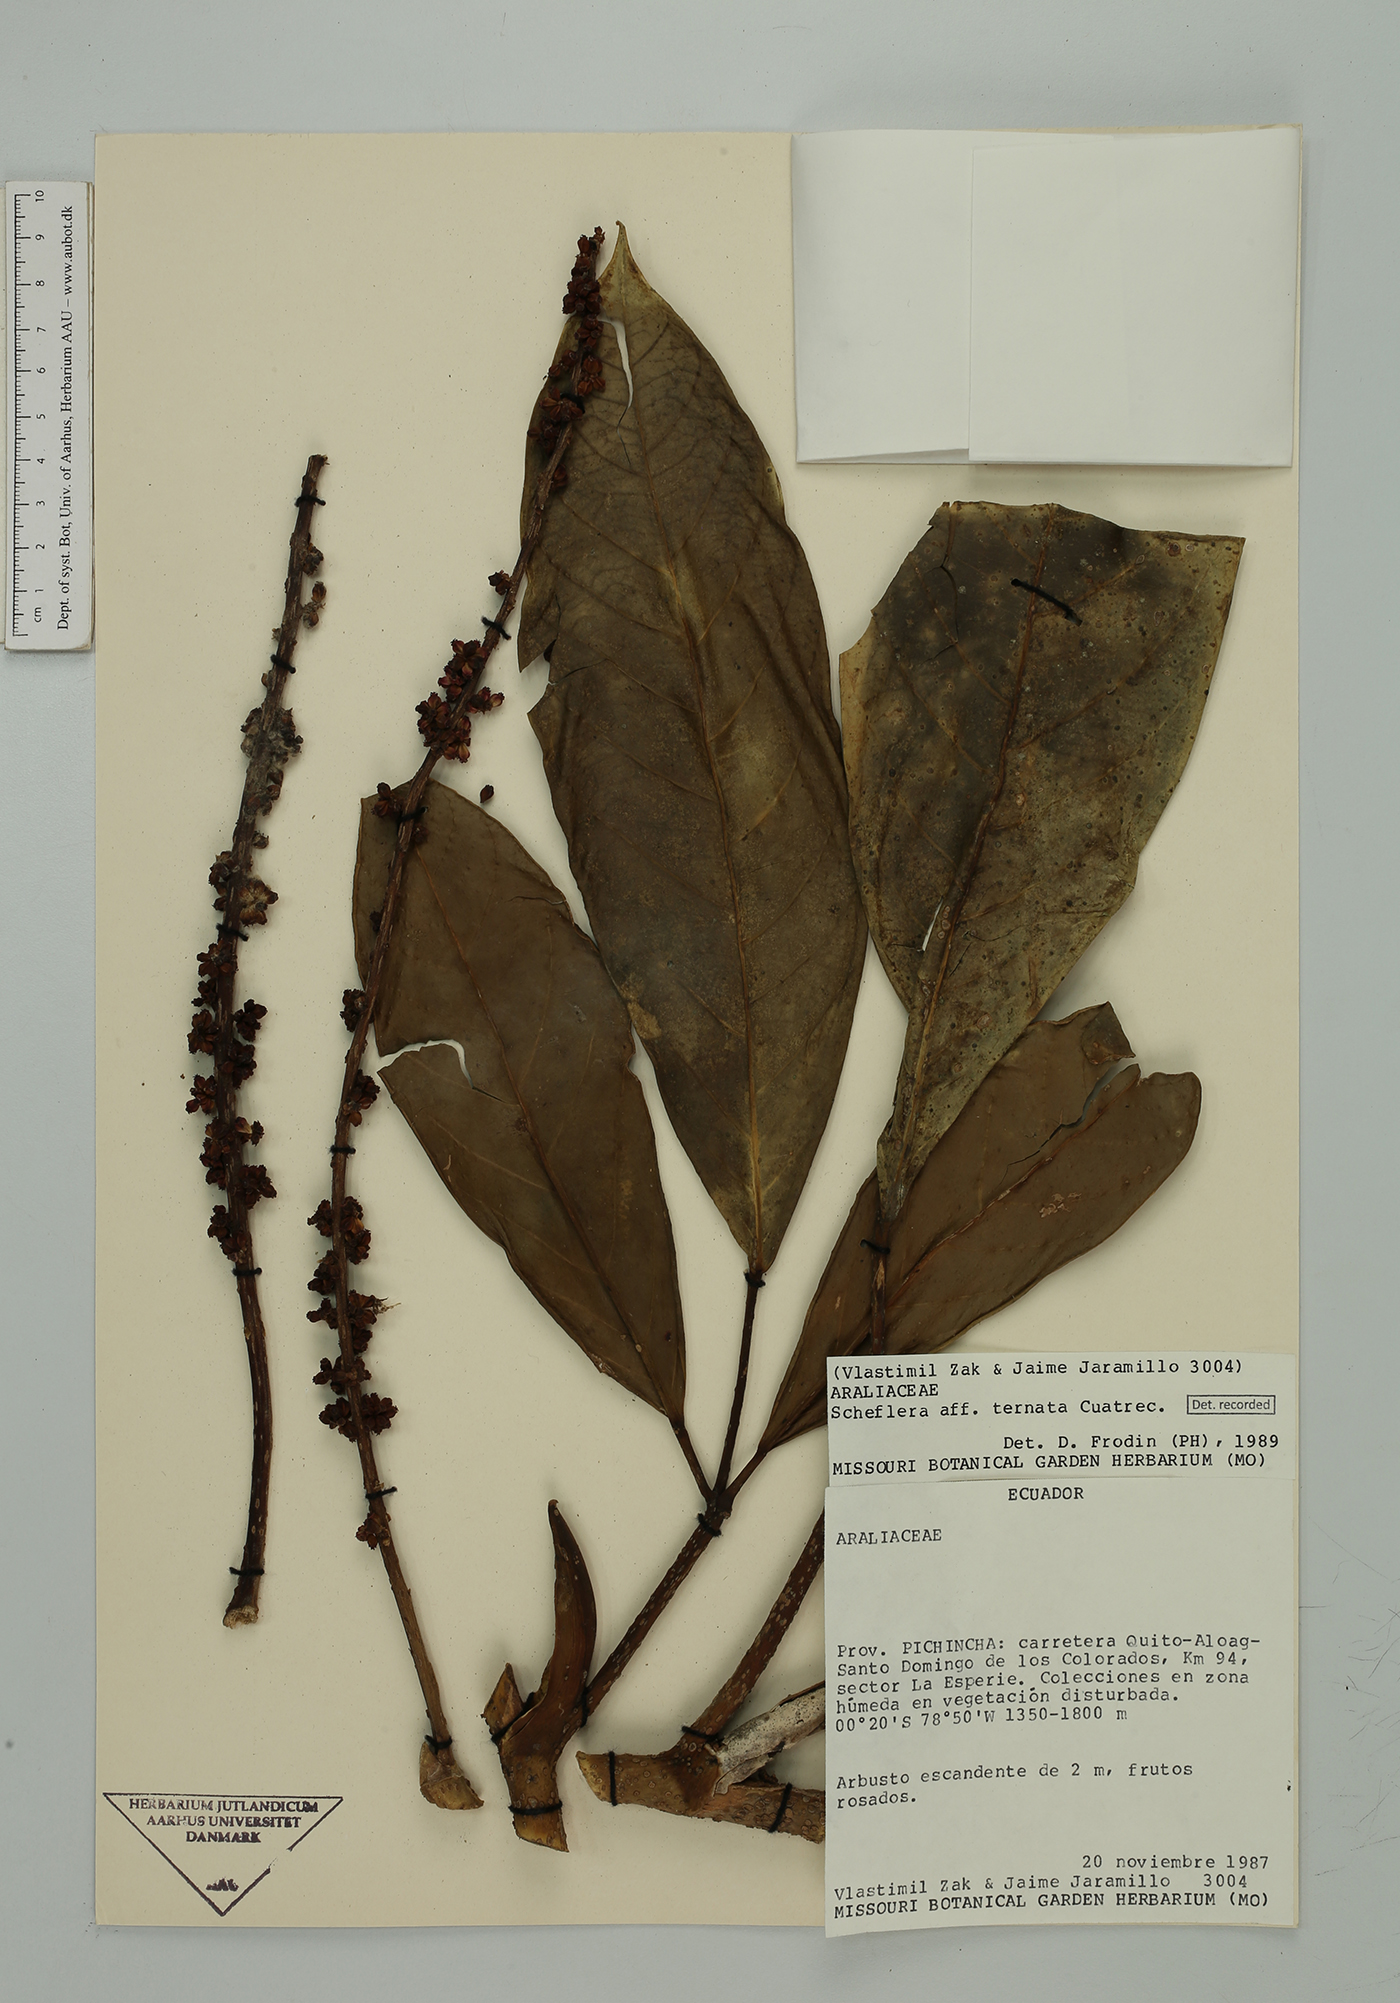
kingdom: Plantae
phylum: Tracheophyta
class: Magnoliopsida
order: Apiales
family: Araliaceae
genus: Sciodaphyllum
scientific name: Sciodaphyllum
